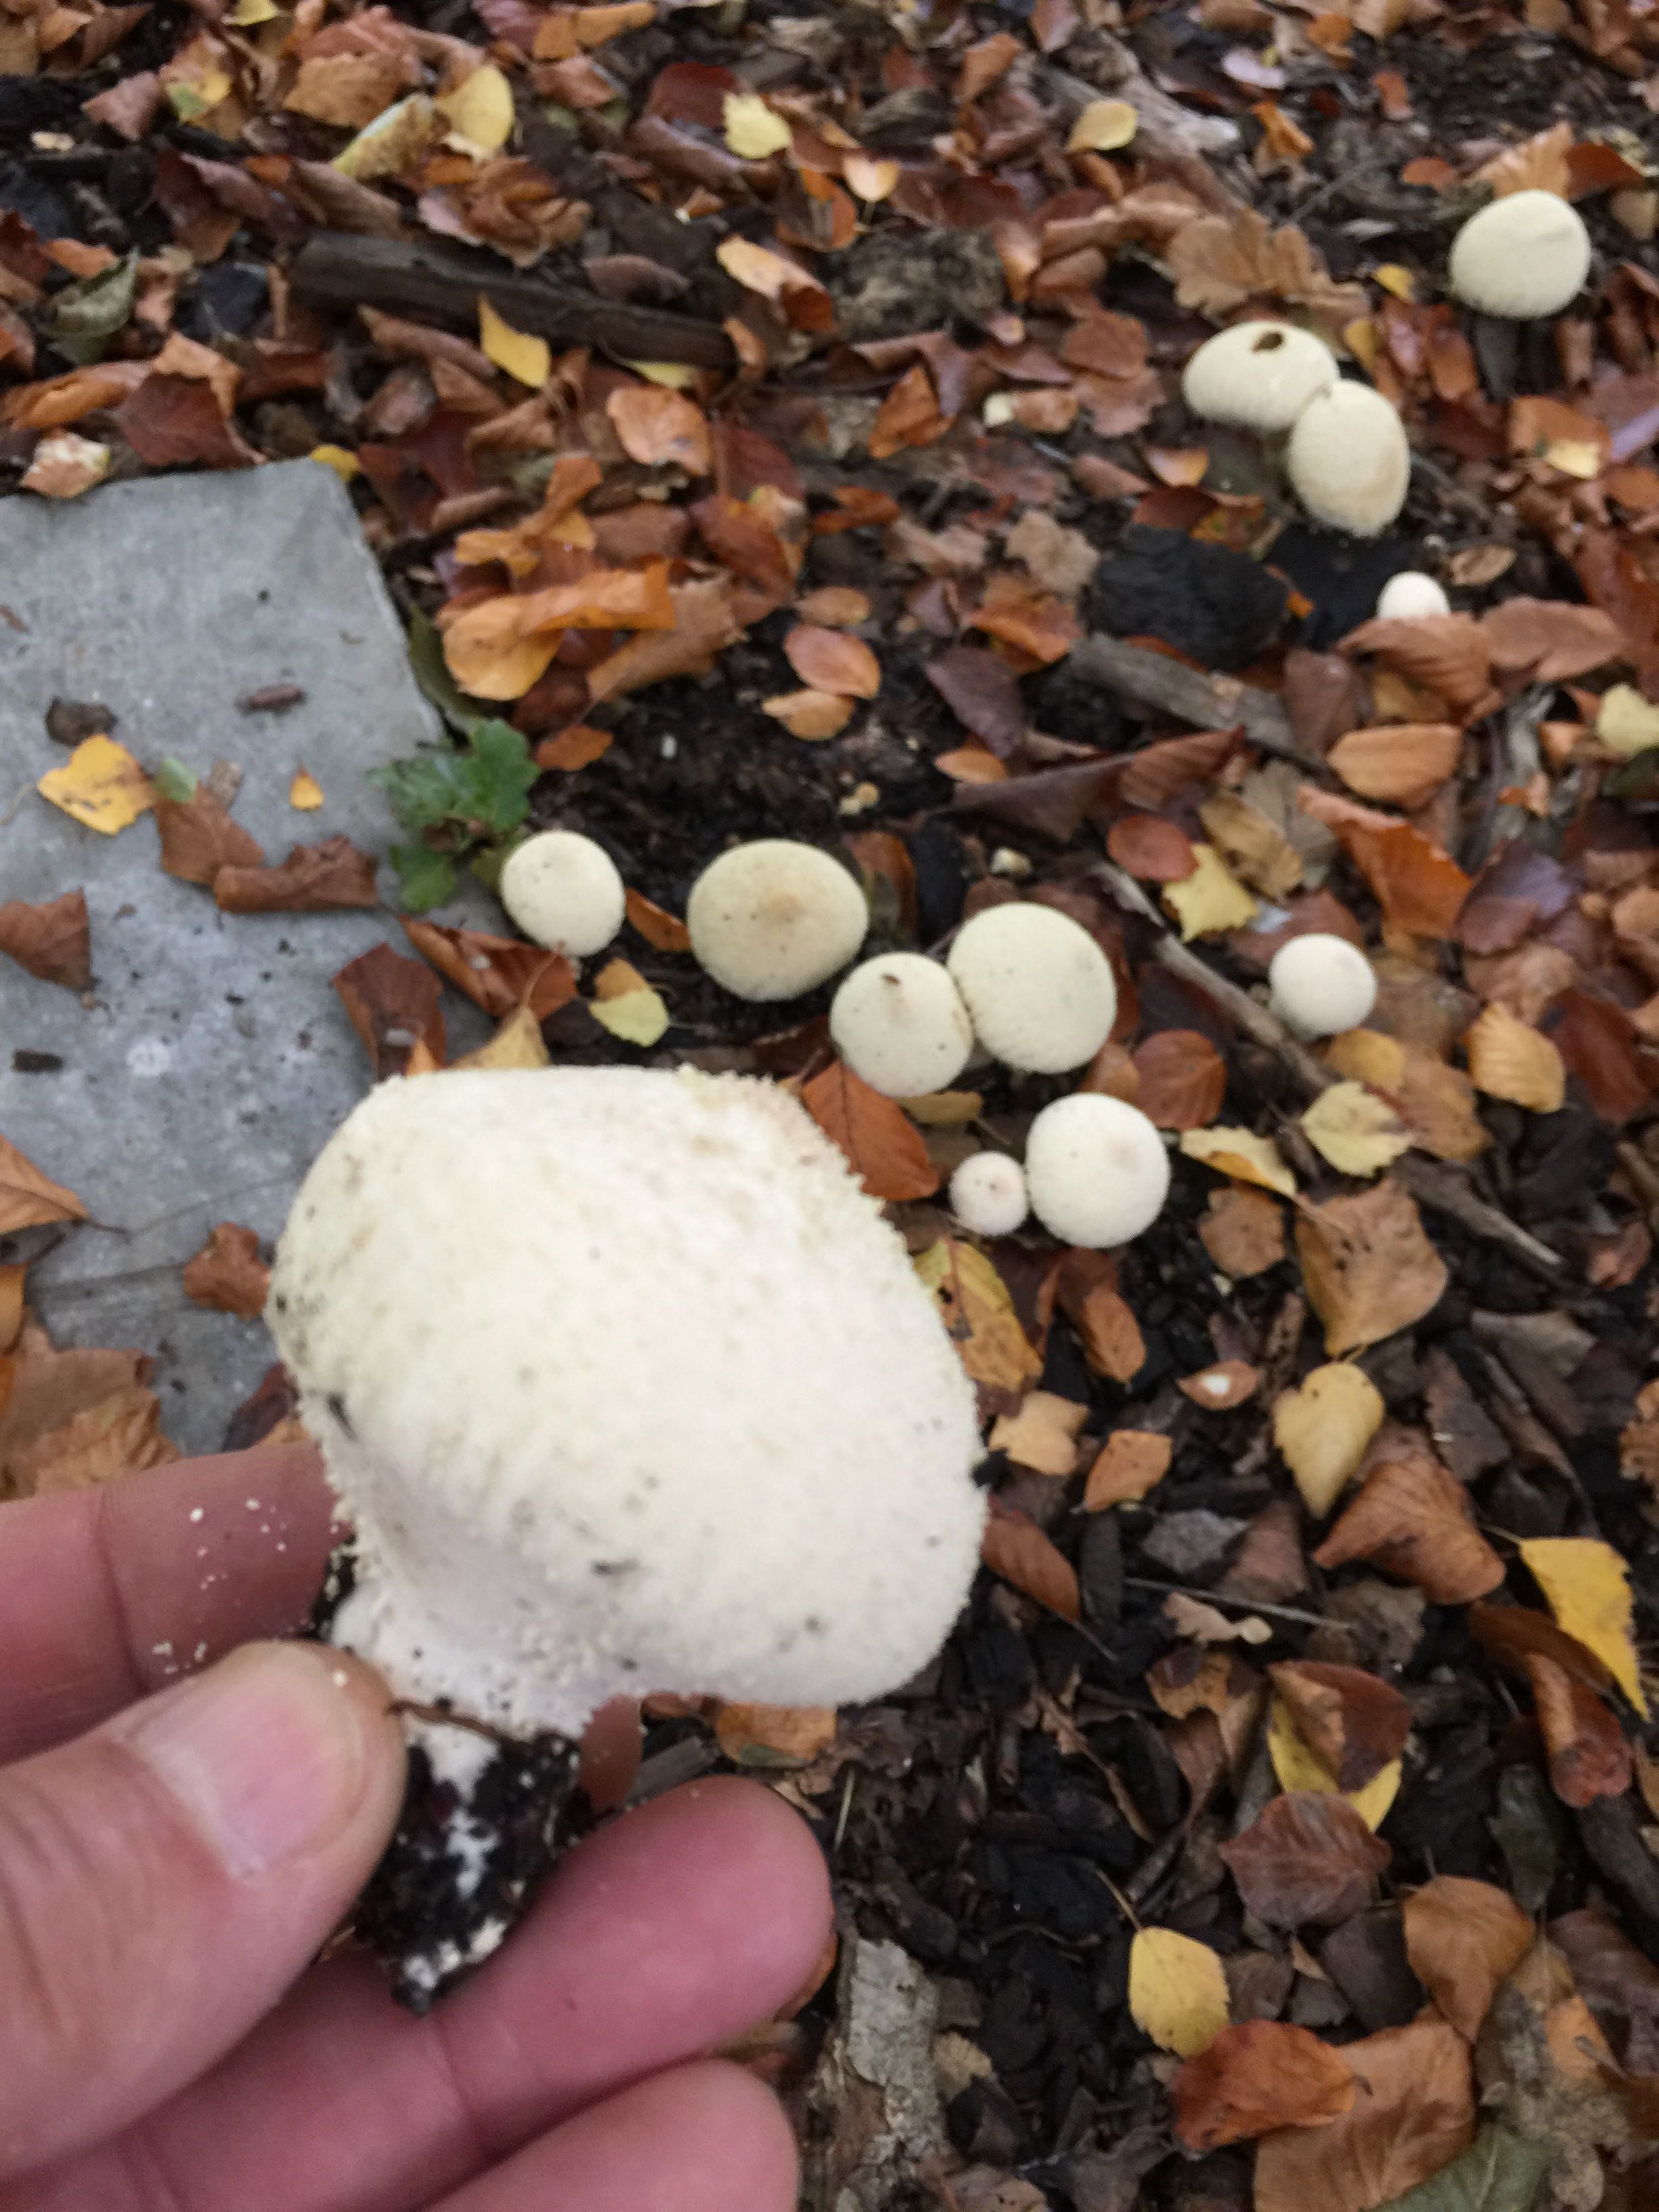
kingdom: Fungi
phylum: Basidiomycota
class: Agaricomycetes
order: Agaricales
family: Agaricaceae
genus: Lycoperdon
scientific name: Lycoperdon
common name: støvbold
